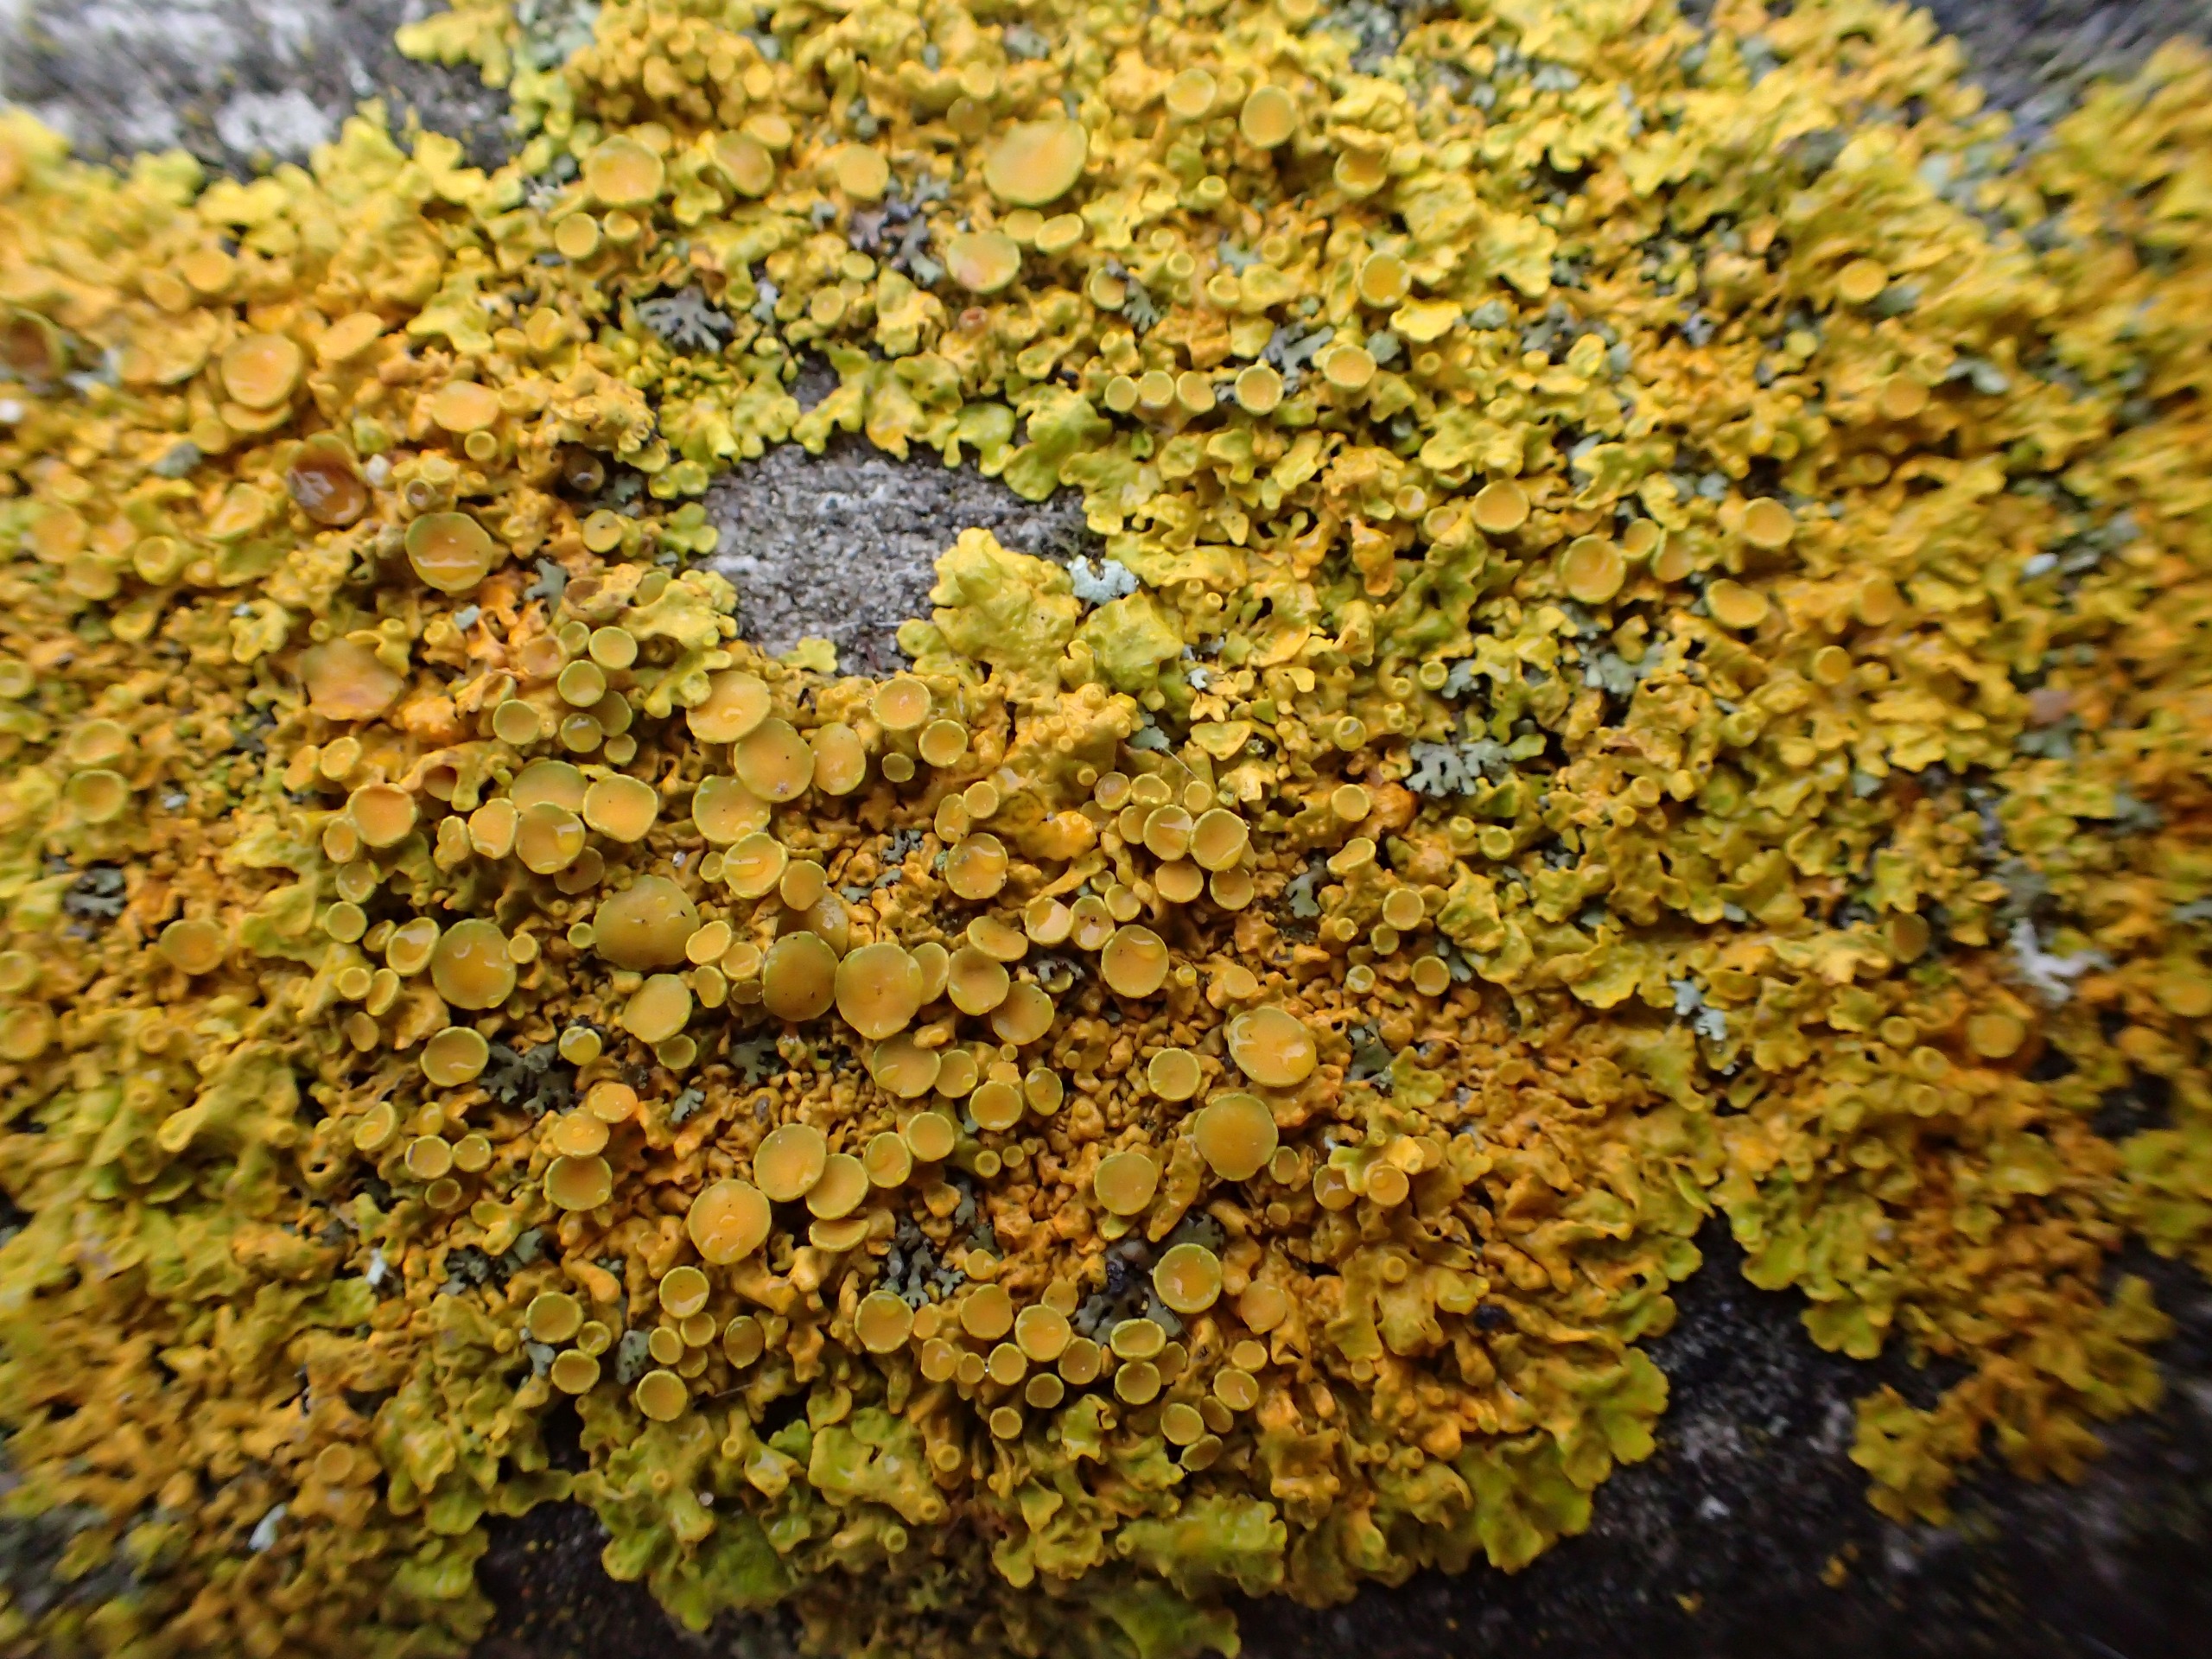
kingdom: Fungi
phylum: Ascomycota
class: Lecanoromycetes
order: Teloschistales
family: Teloschistaceae
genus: Xanthoria
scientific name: Xanthoria parietina
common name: Almindelig væggelav
